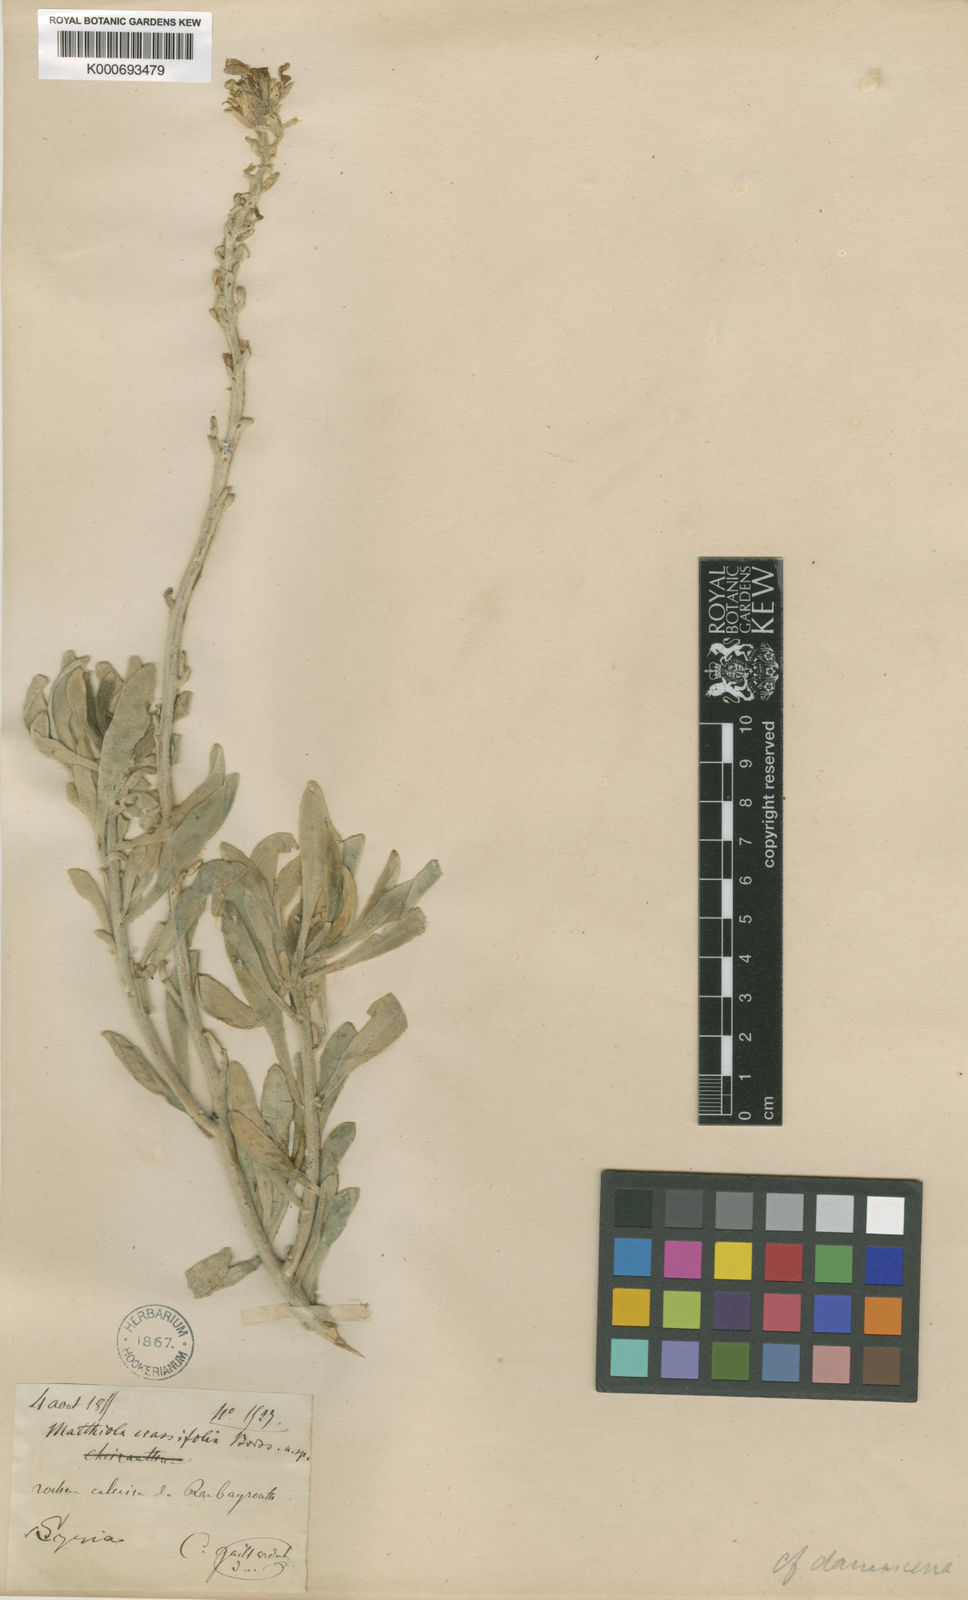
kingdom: Plantae
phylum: Tracheophyta
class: Magnoliopsida
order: Brassicales
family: Brassicaceae
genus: Matthiola
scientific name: Matthiola
